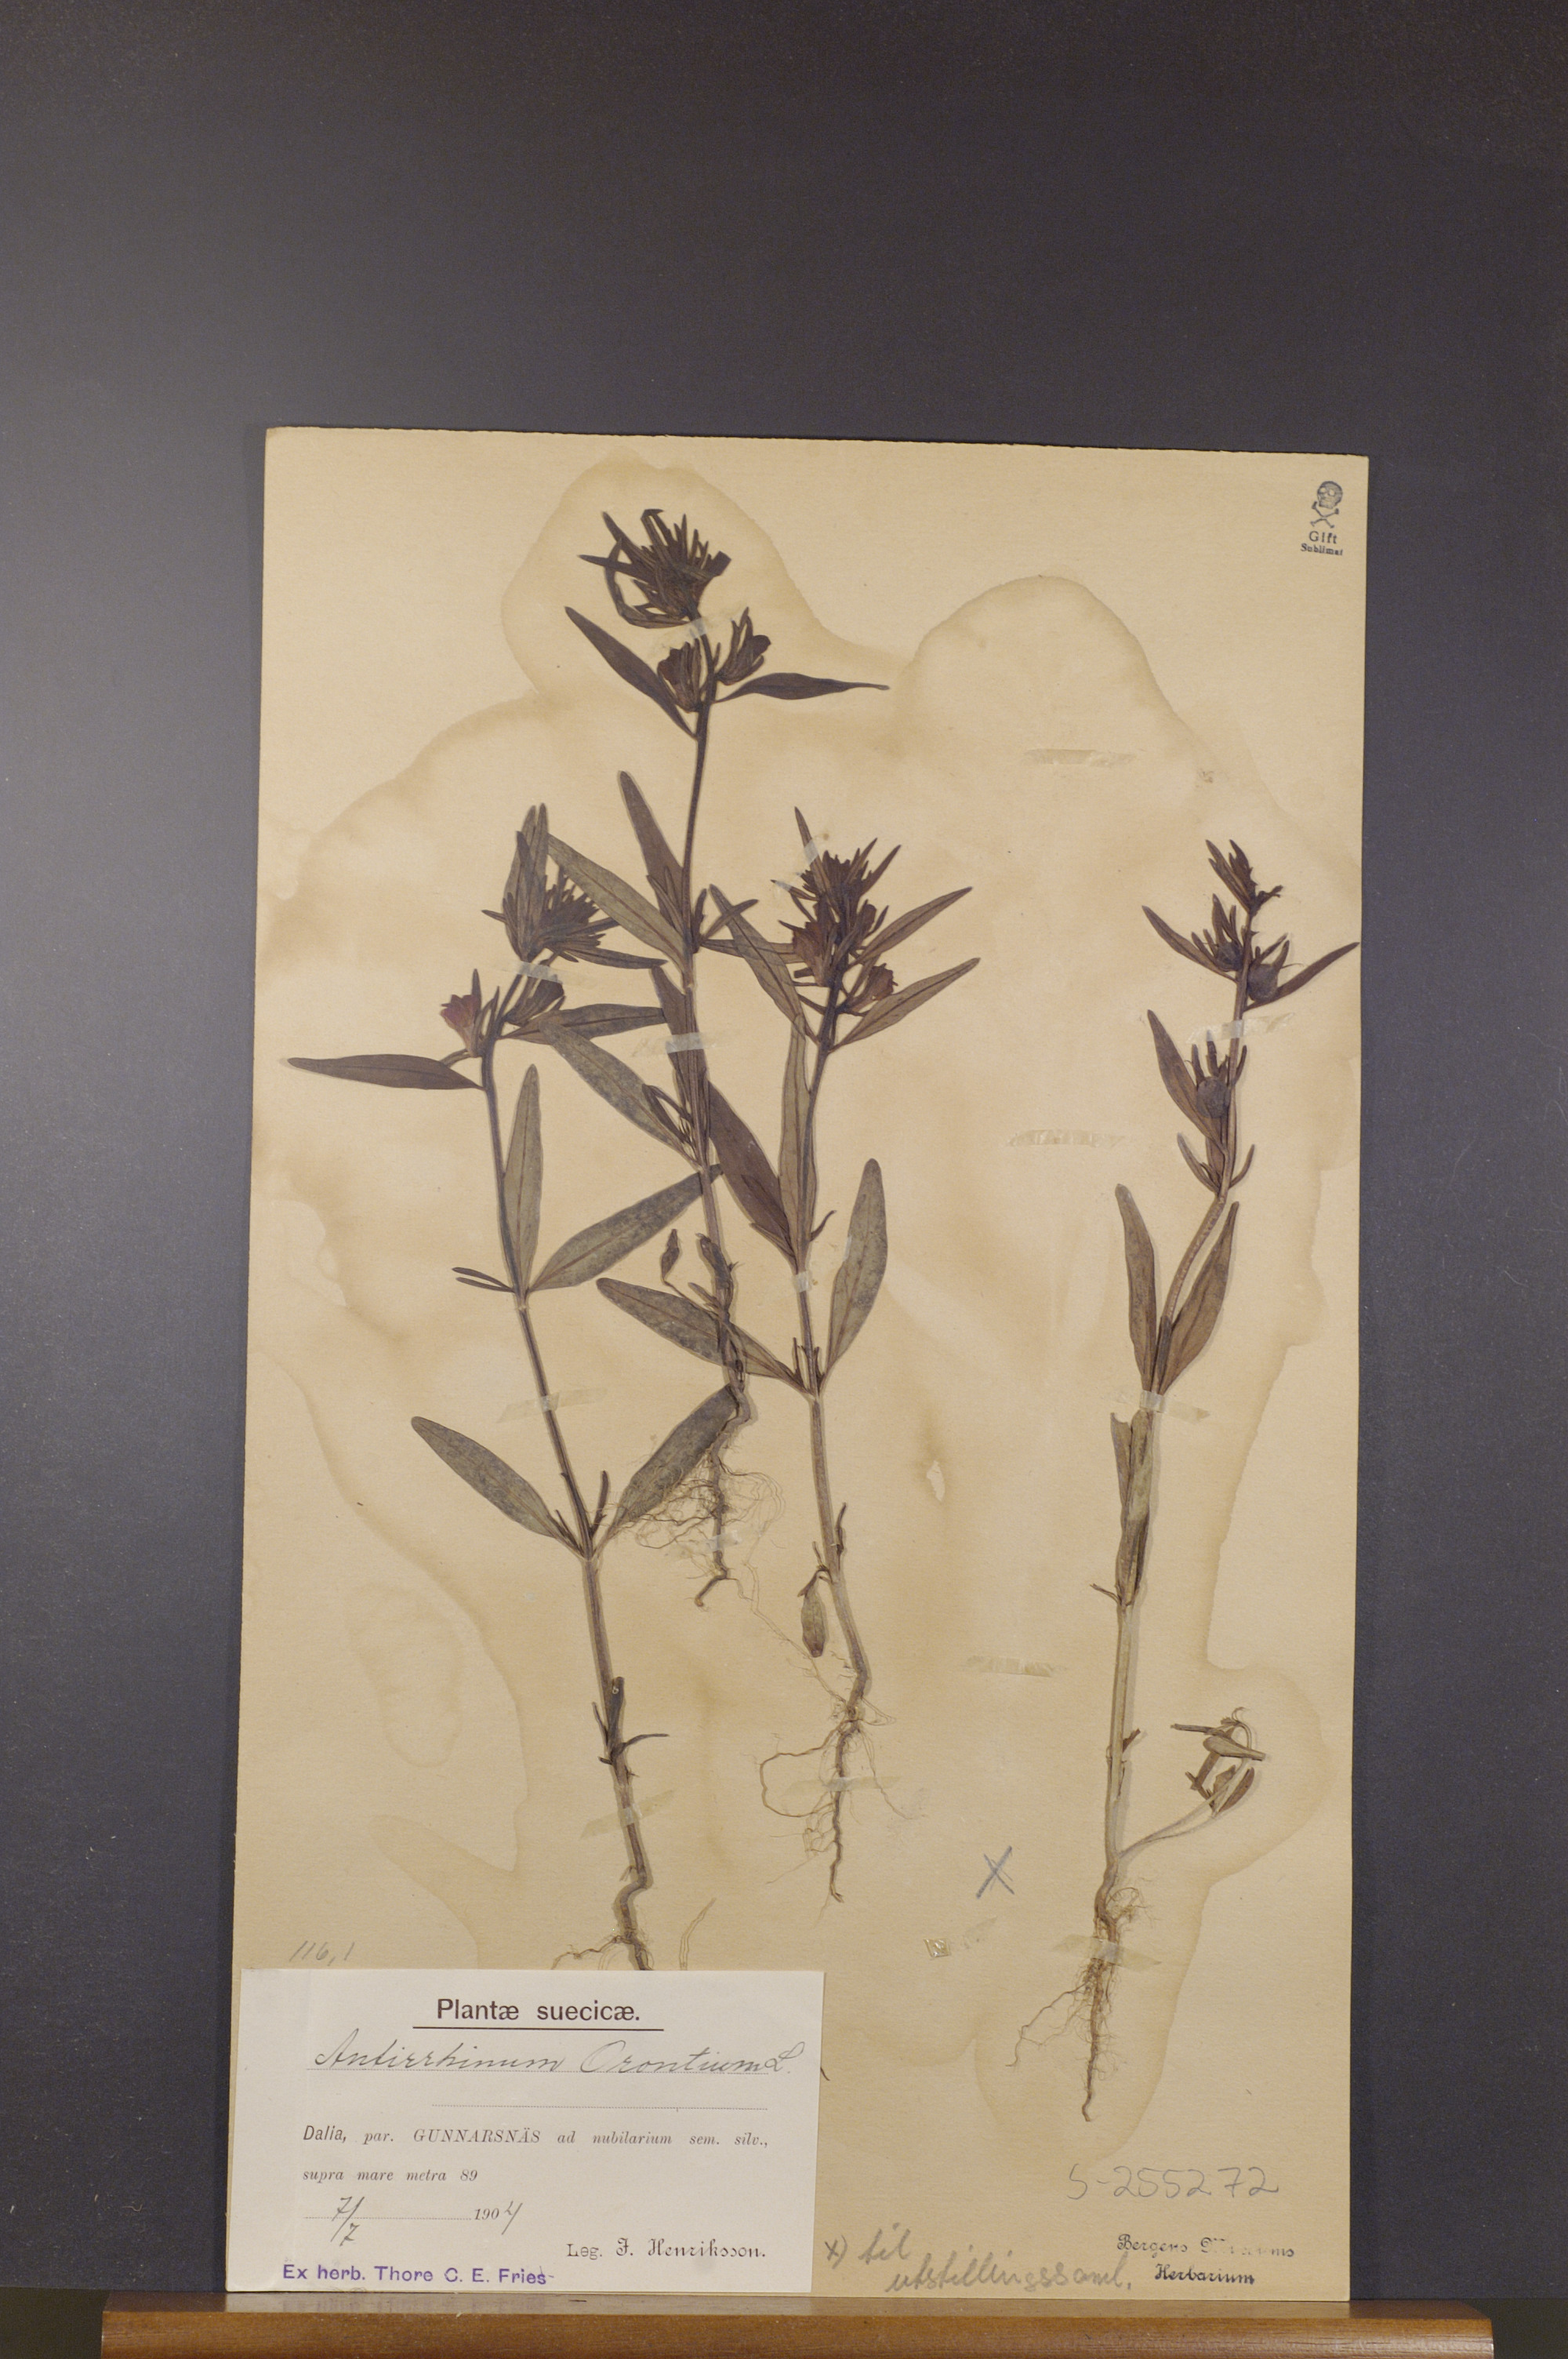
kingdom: Plantae
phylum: Tracheophyta
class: Magnoliopsida
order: Lamiales
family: Plantaginaceae
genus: Misopates
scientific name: Misopates orontium
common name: Weasel's-snout
